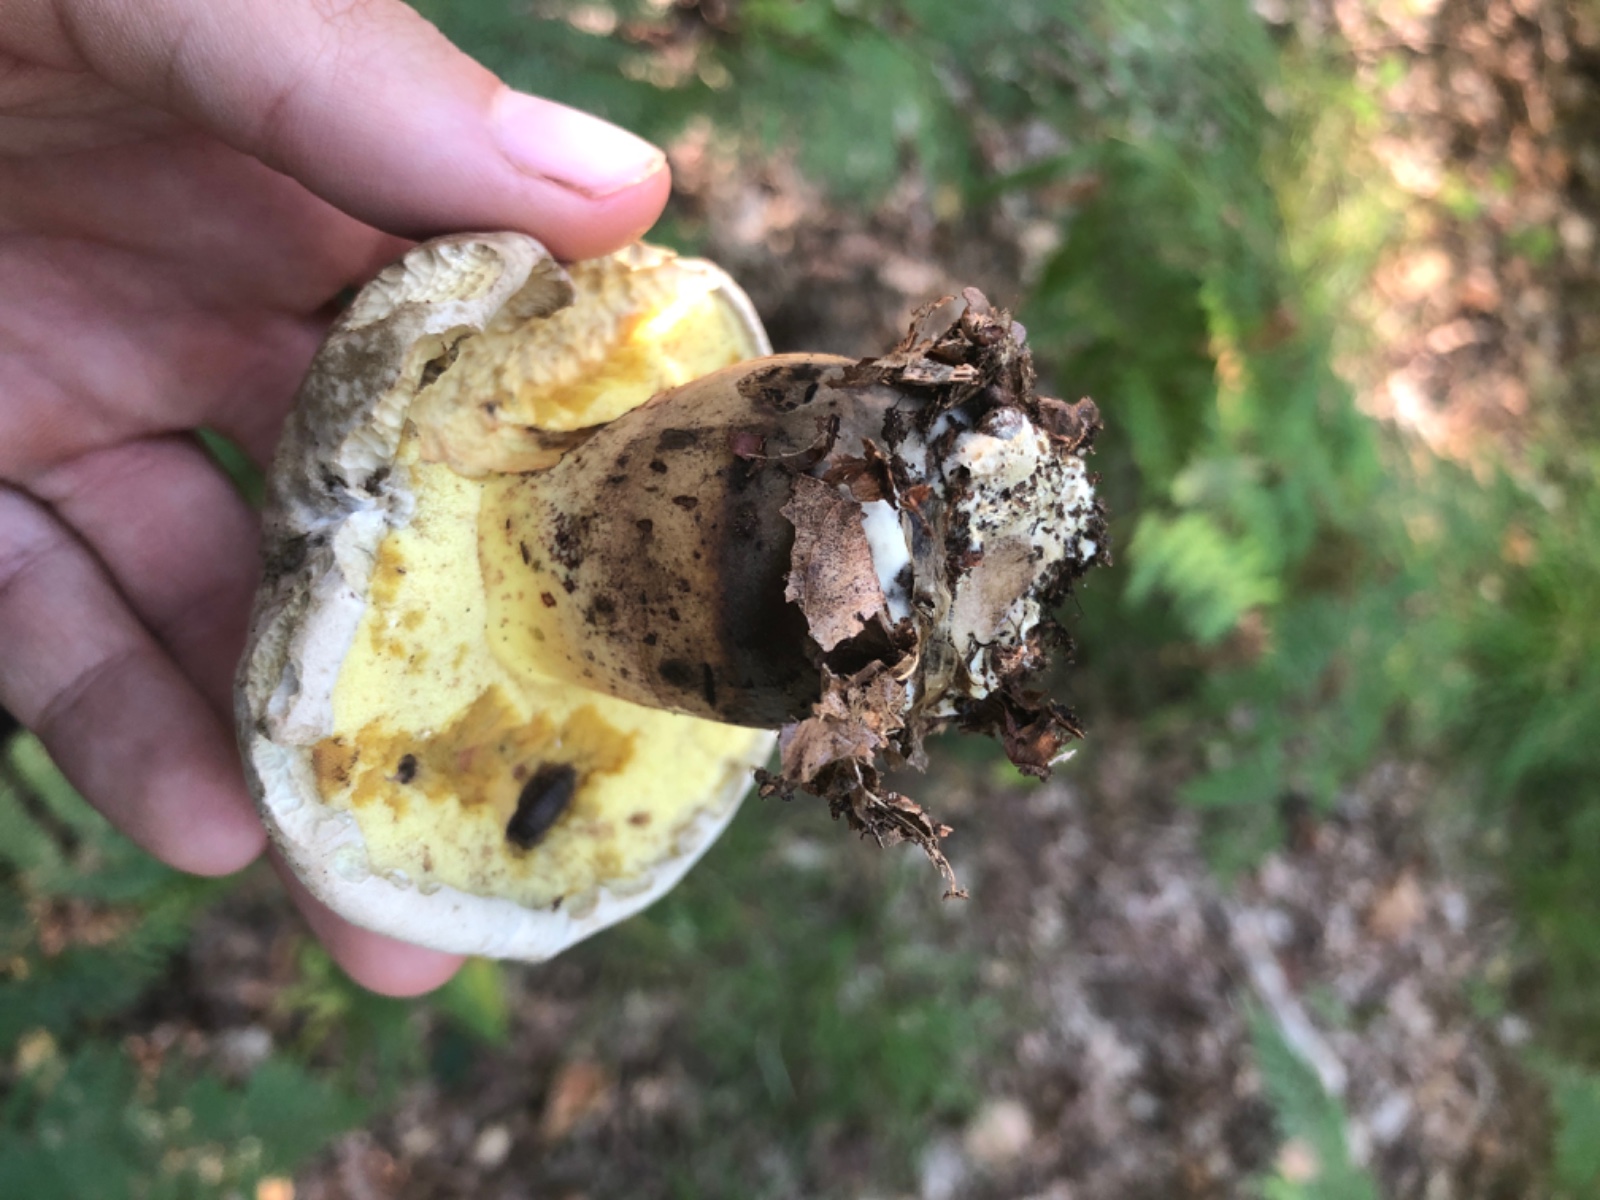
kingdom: Fungi
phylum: Basidiomycota
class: Agaricomycetes
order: Boletales
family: Boletaceae
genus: Caloboletus
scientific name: Caloboletus radicans
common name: rod-rørhat
